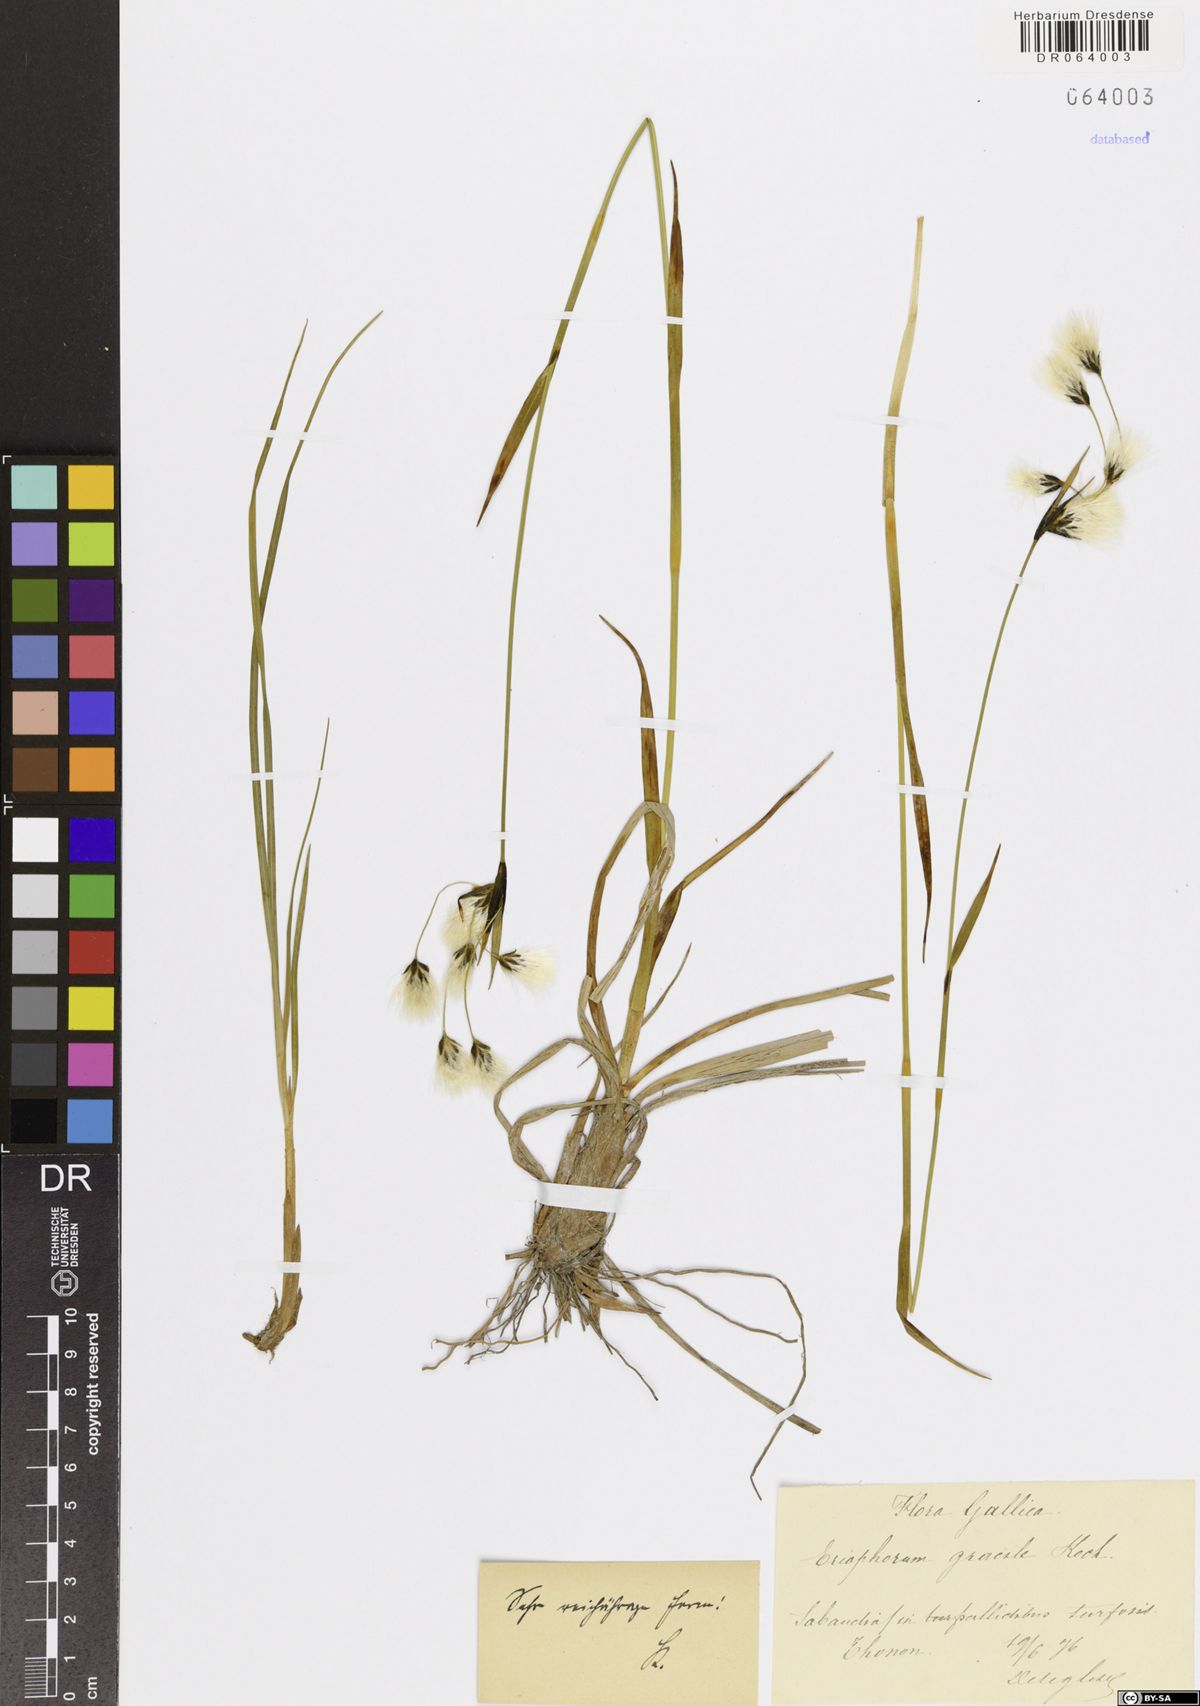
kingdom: Plantae
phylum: Tracheophyta
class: Liliopsida
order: Poales
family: Cyperaceae
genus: Eriophorum
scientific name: Eriophorum gracile
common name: Slender cottongrass
